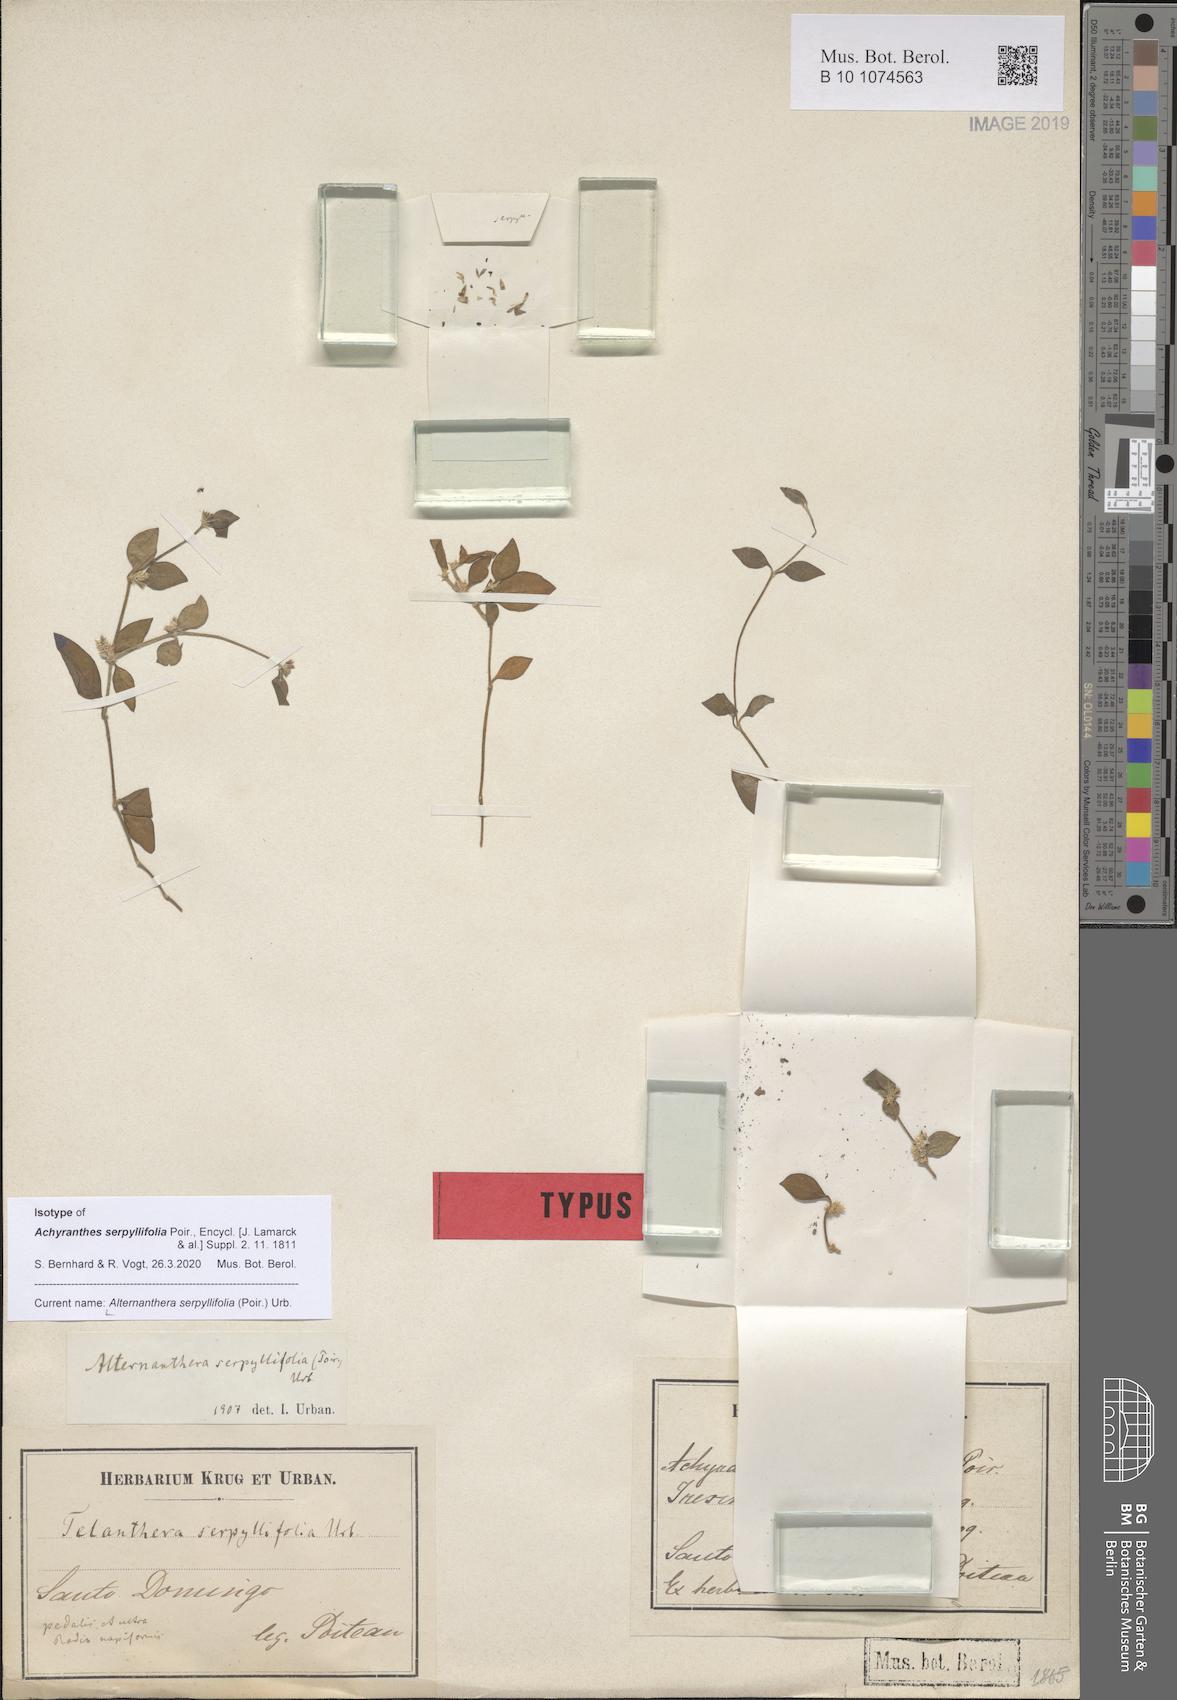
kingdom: Plantae
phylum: Tracheophyta
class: Magnoliopsida
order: Caryophyllales
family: Amaranthaceae
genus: Alternanthera
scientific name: Alternanthera serpyllifolia
